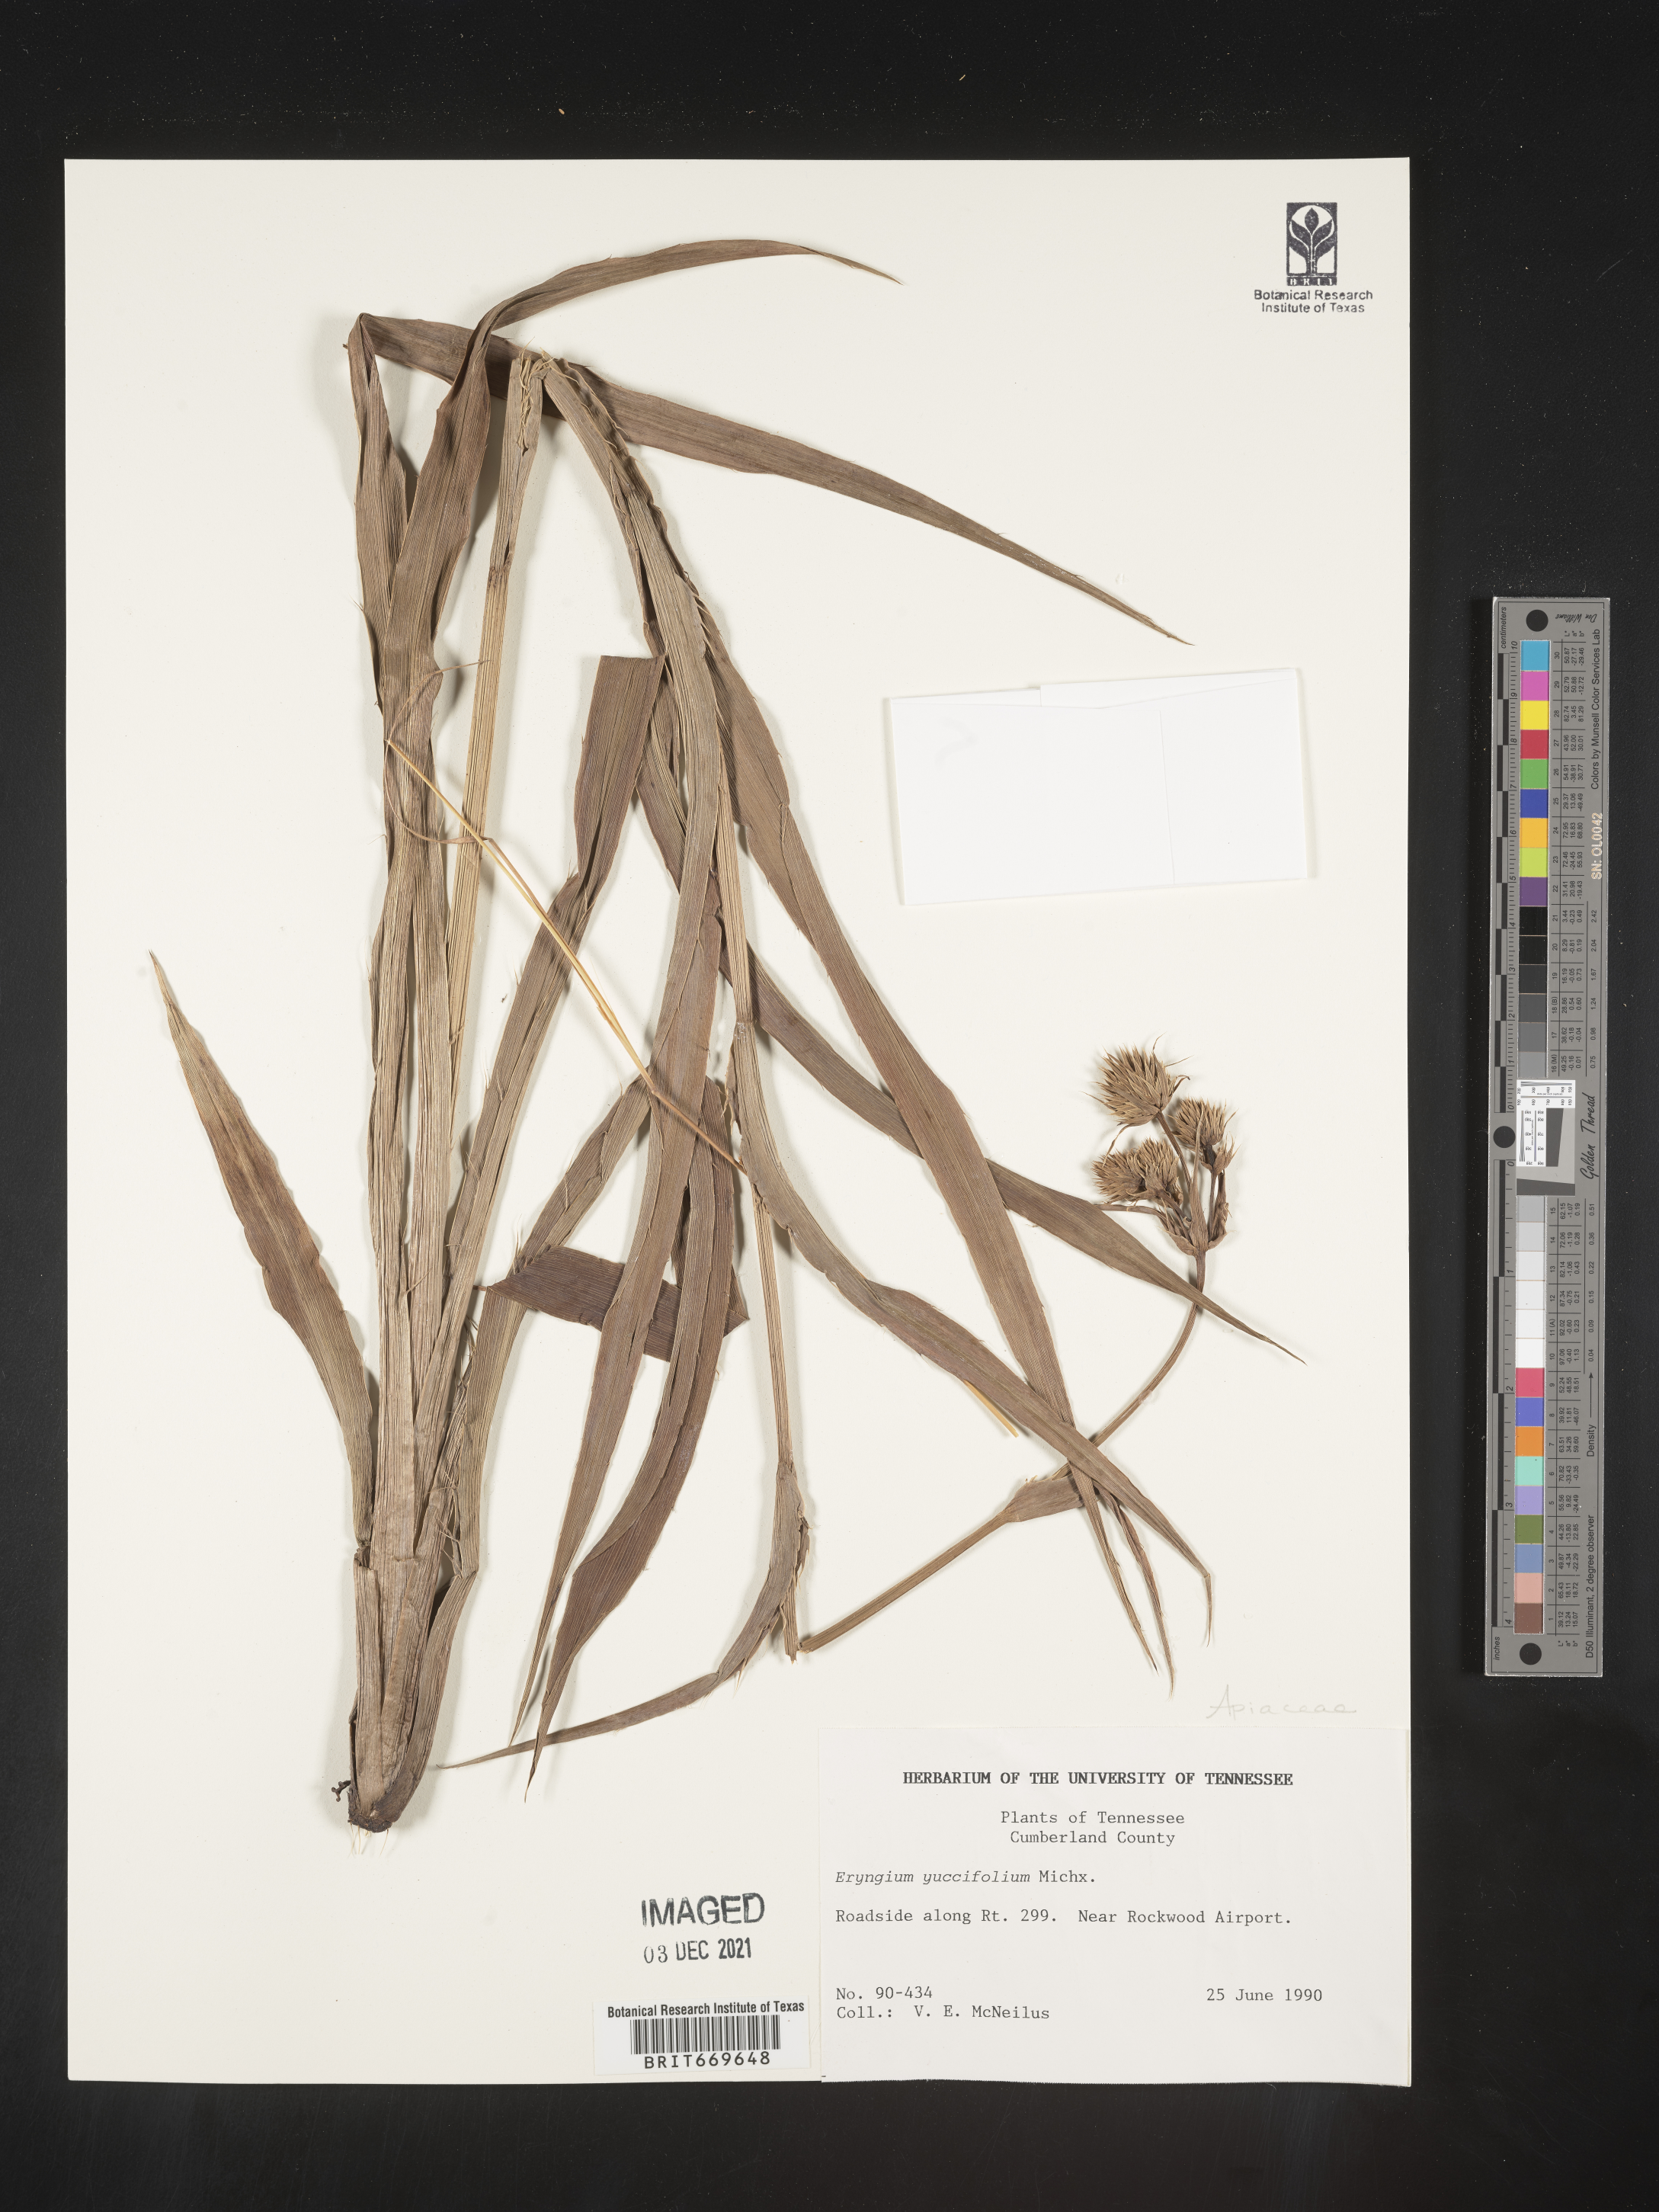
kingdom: Plantae
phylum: Tracheophyta
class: Magnoliopsida
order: Apiales
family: Apiaceae
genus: Eryngium
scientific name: Eryngium yuccifolium
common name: Button eryngo
